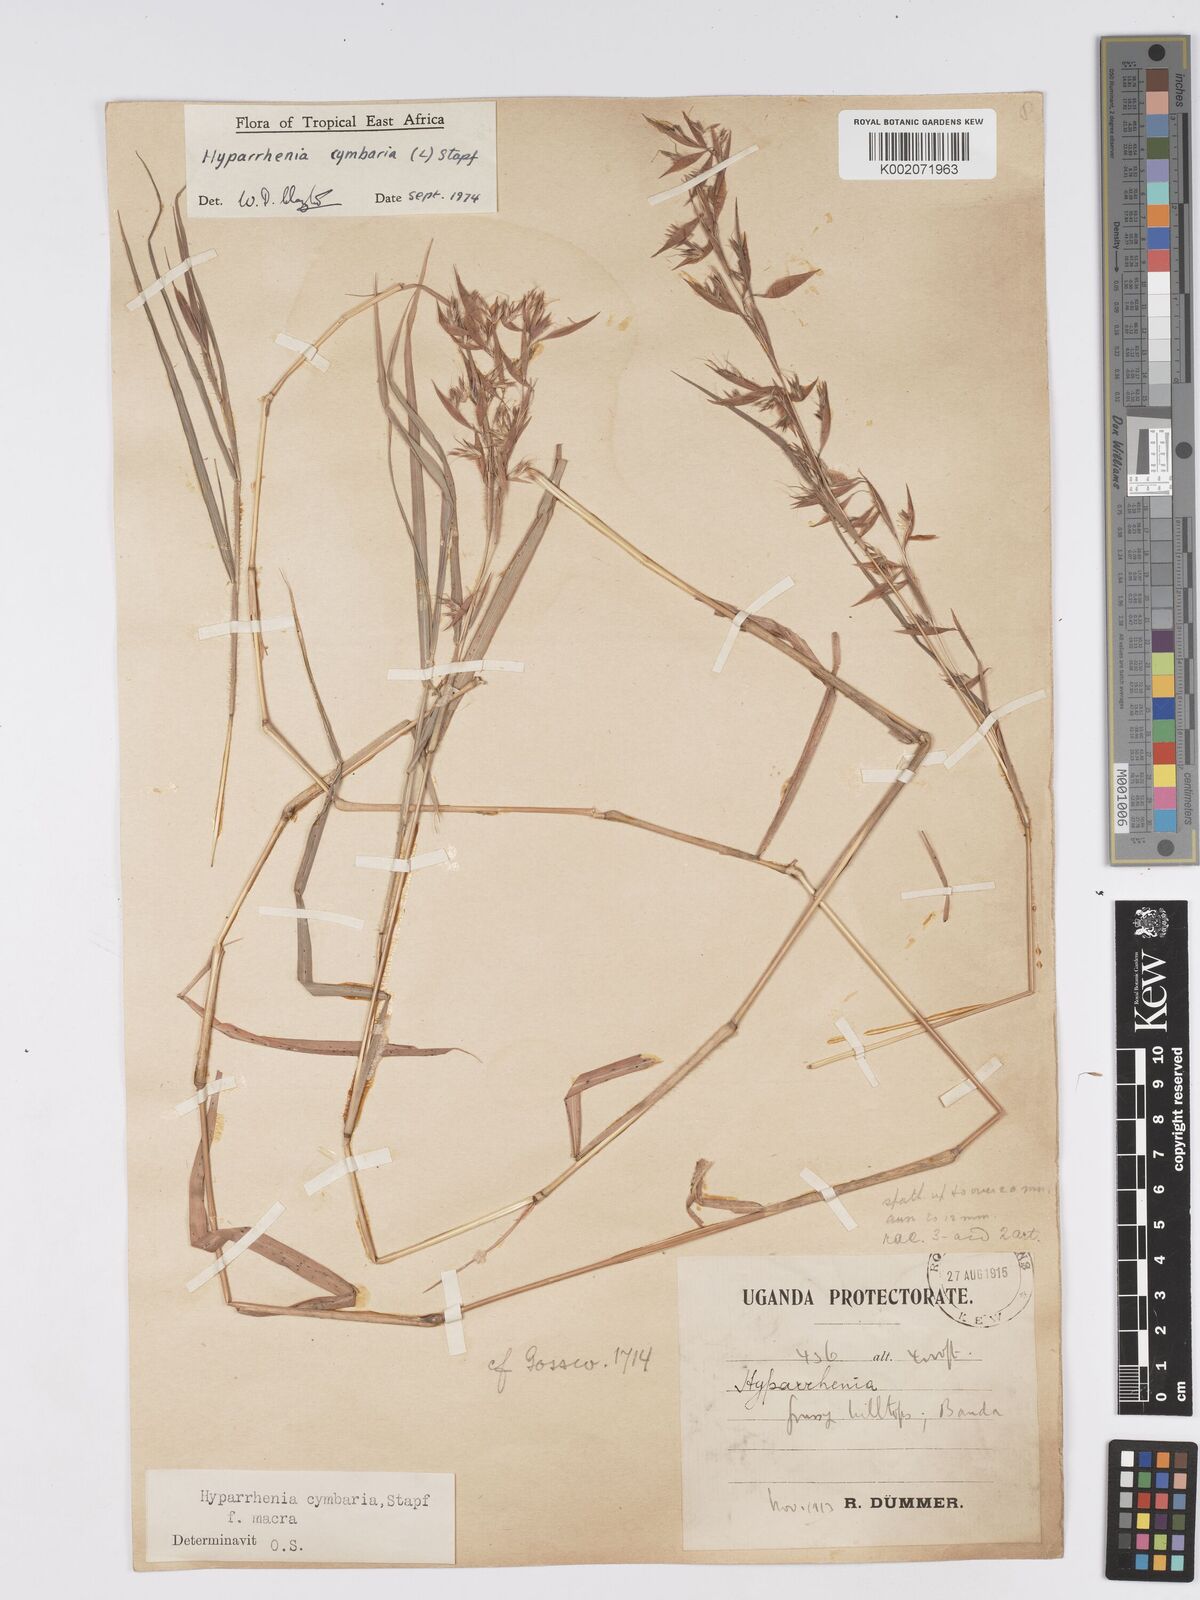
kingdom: Plantae
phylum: Tracheophyta
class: Liliopsida
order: Poales
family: Poaceae
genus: Hyparrhenia
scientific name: Hyparrhenia cymbaria
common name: Boat thatching grass
